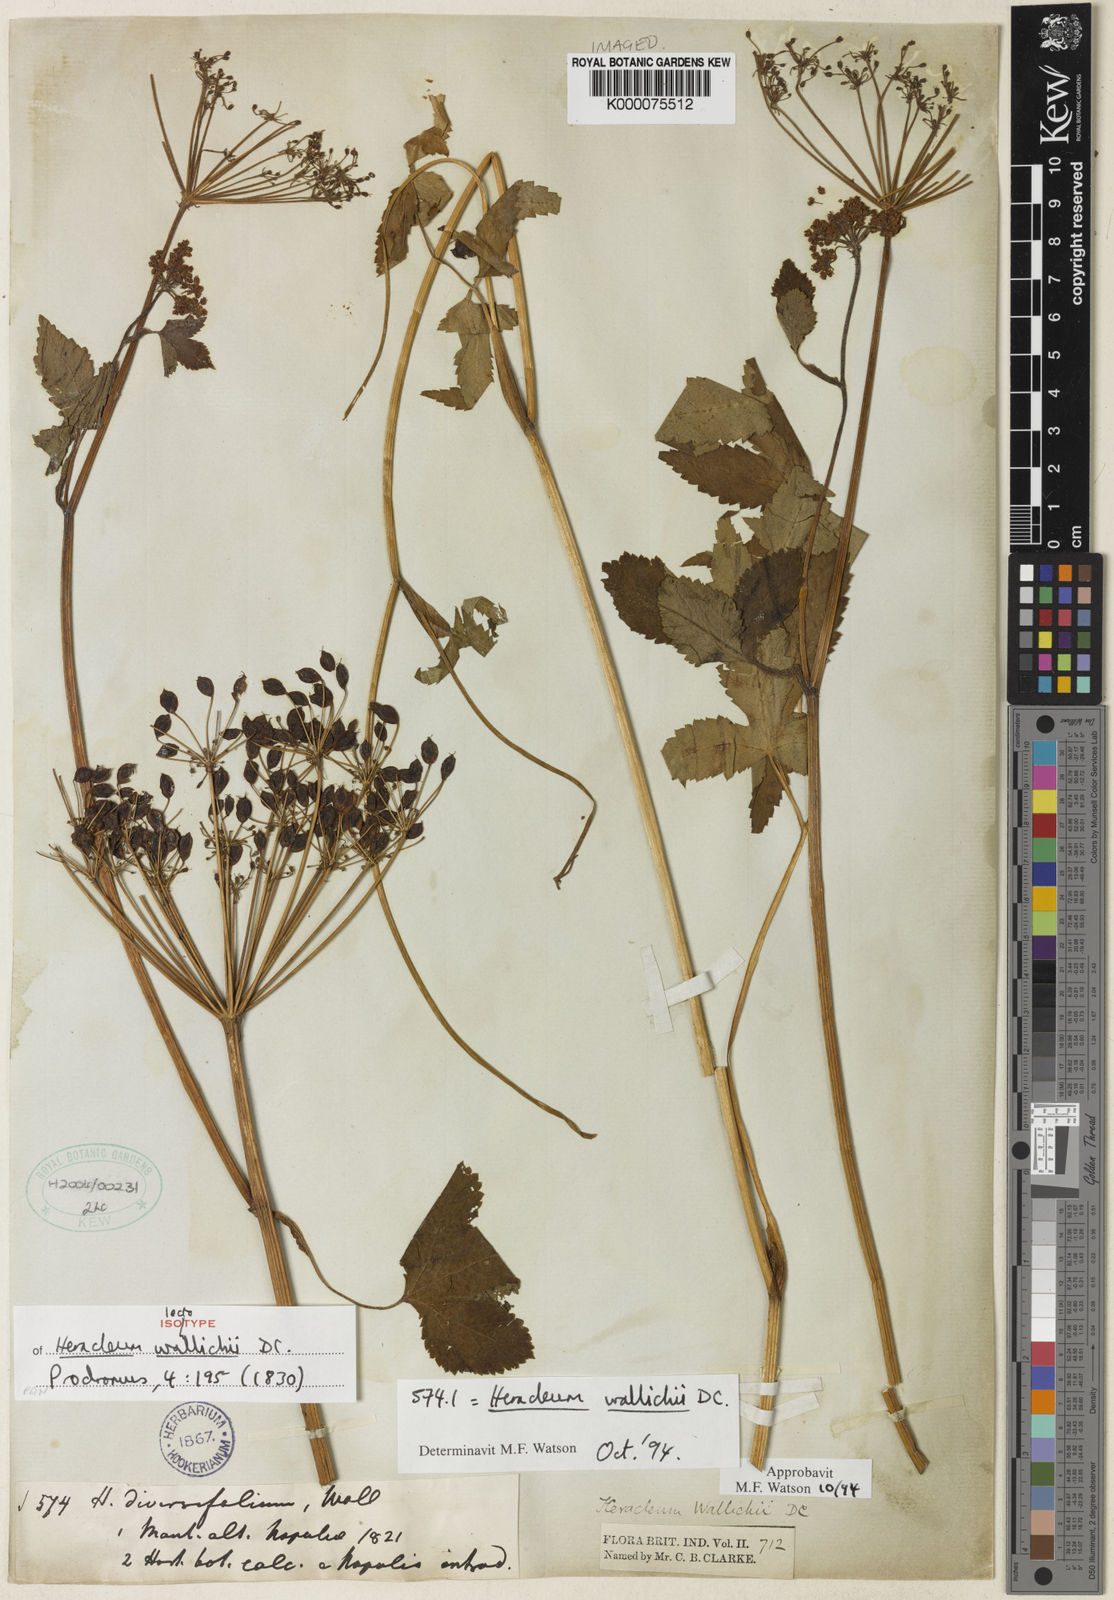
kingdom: Plantae
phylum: Tracheophyta
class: Magnoliopsida
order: Apiales
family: Apiaceae
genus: Tetrataenium
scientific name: Tetrataenium wallichii
